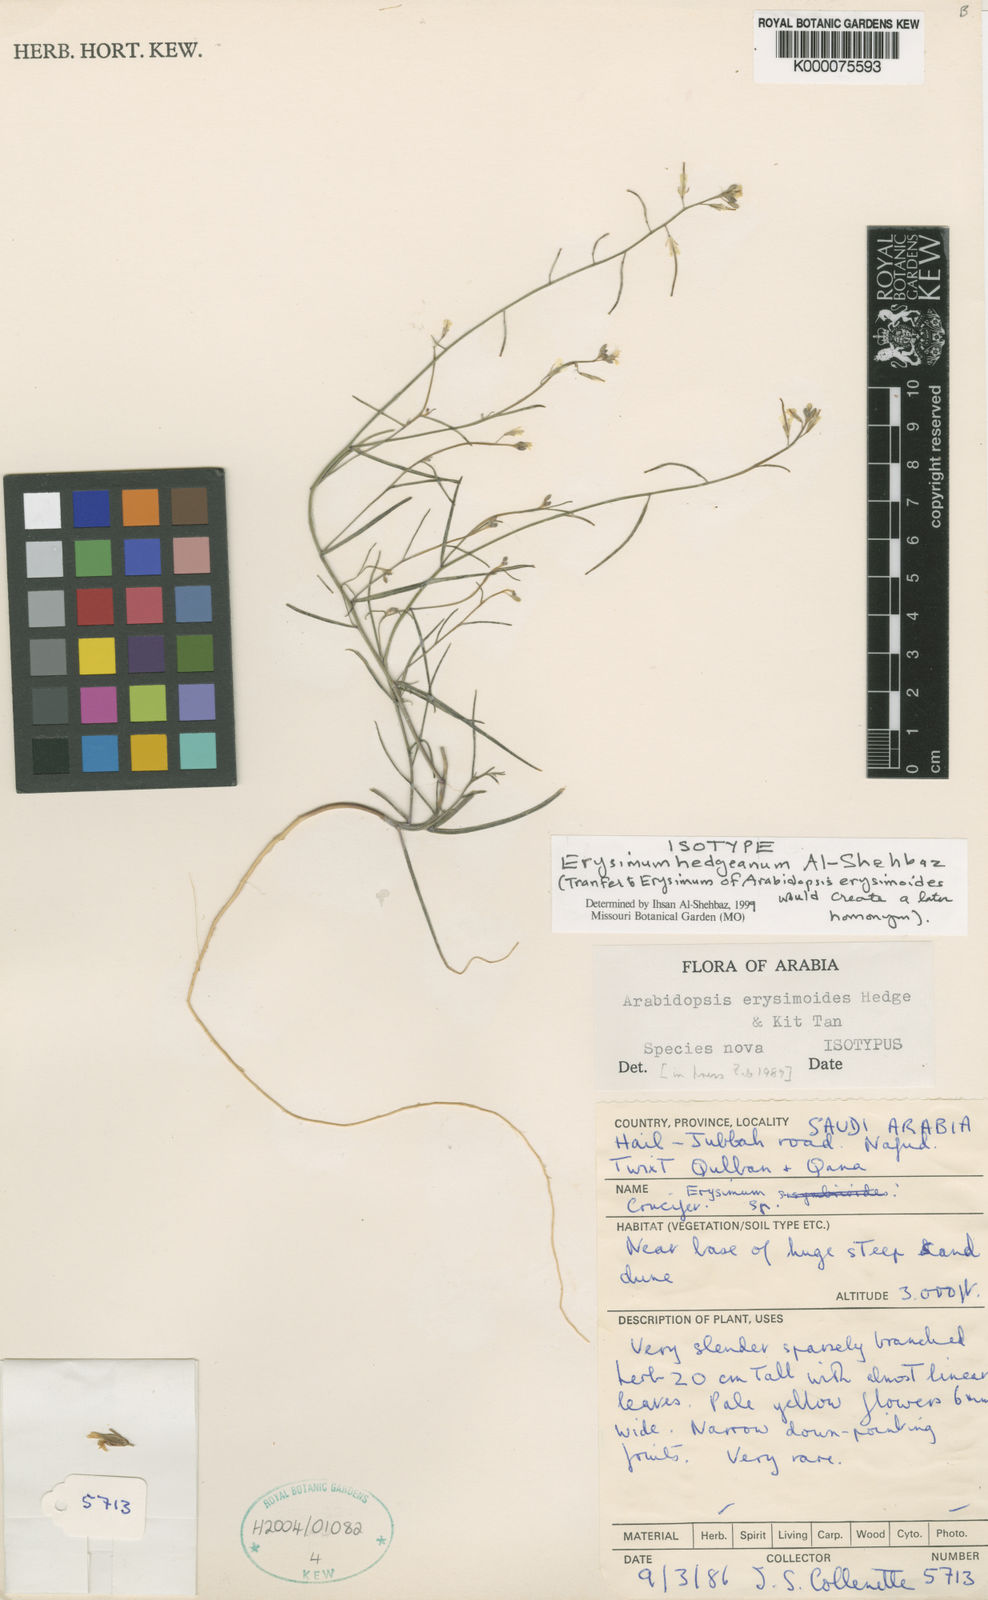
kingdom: Plantae
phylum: Tracheophyta
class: Magnoliopsida
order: Brassicales
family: Brassicaceae
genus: Erysimum
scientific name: Erysimum hedgeanum
